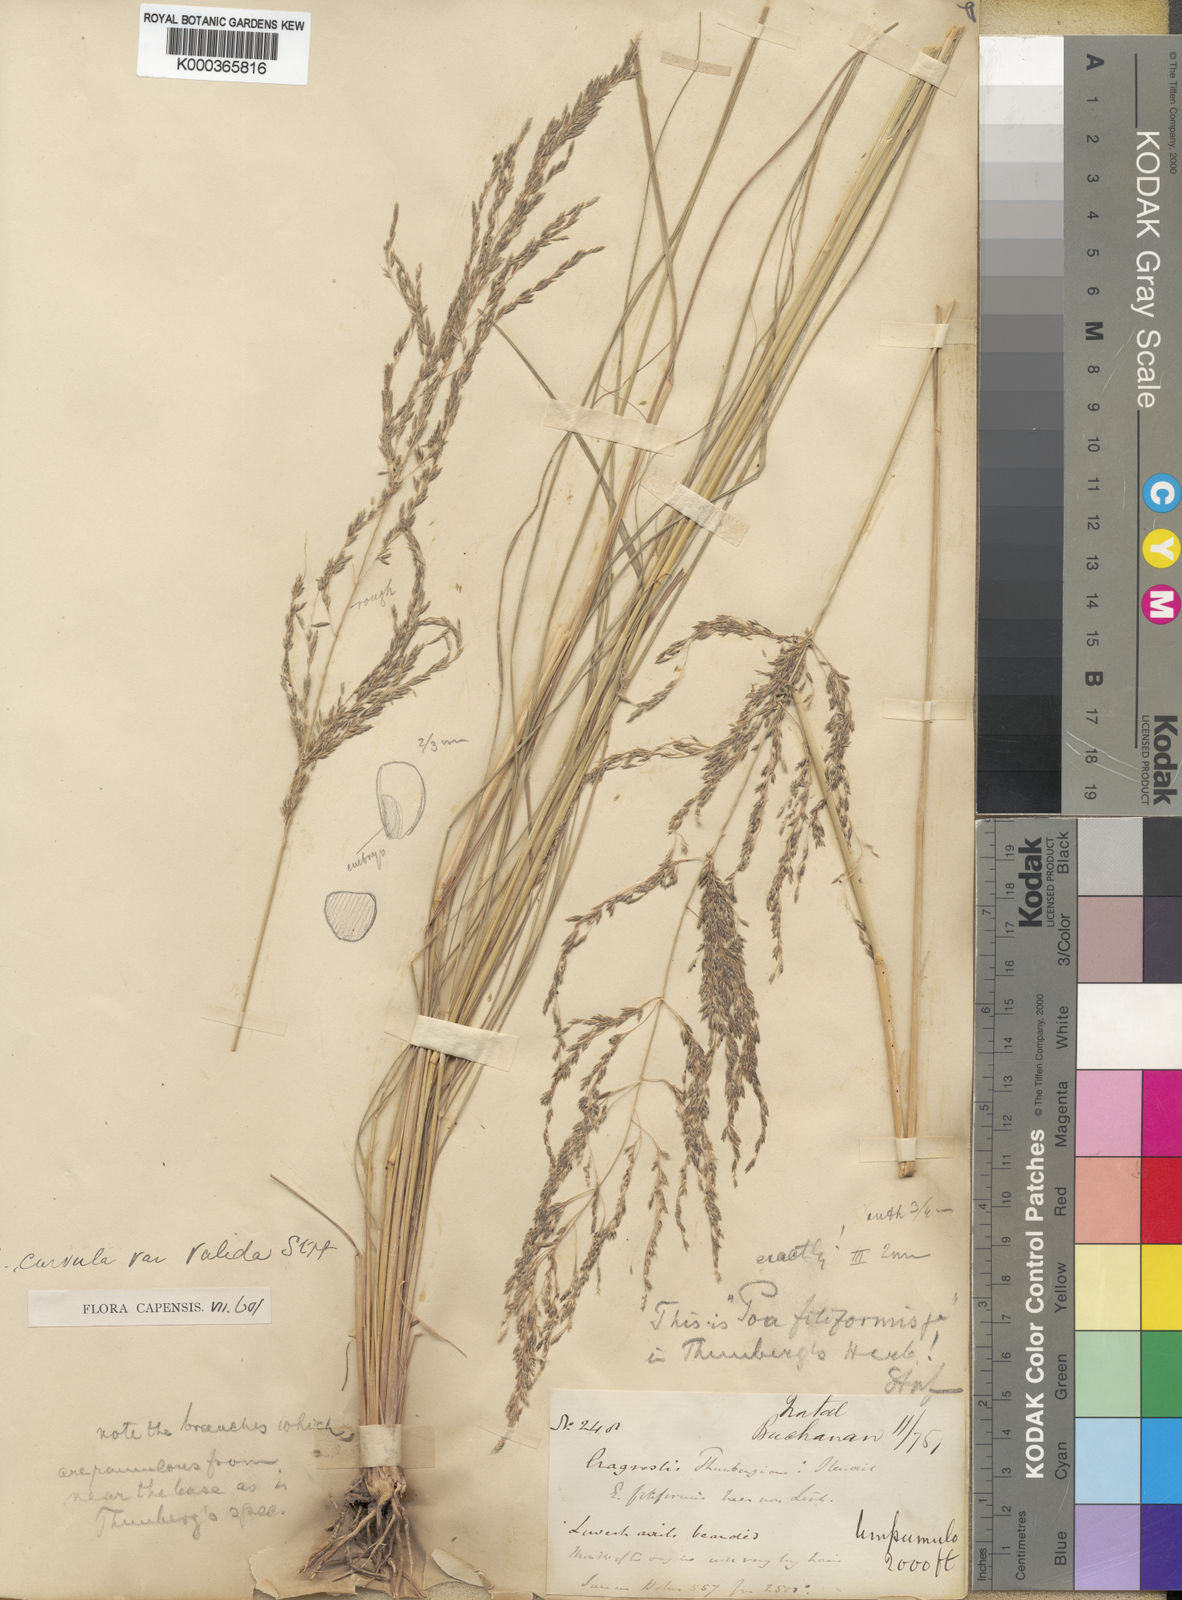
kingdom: Plantae
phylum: Tracheophyta
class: Liliopsida
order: Poales
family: Poaceae
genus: Eragrostis
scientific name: Eragrostis curvula
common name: African love-grass
